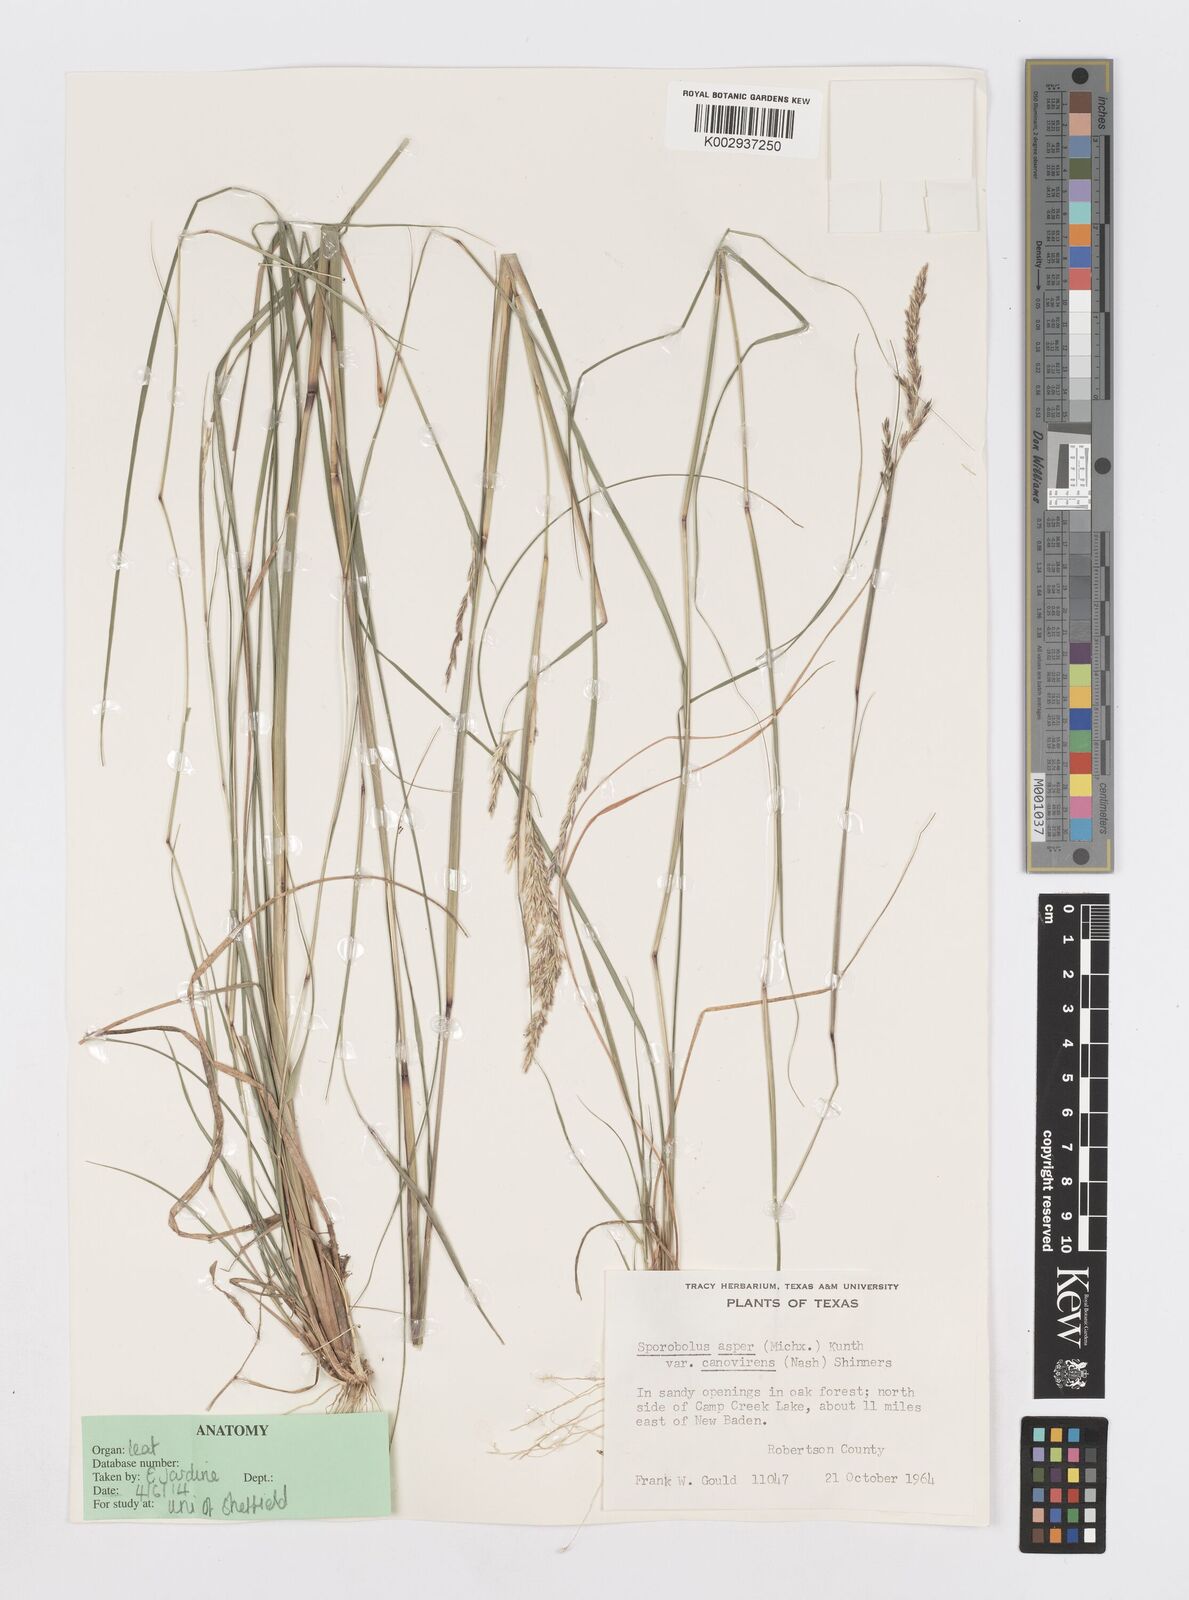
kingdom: Plantae
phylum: Tracheophyta
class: Liliopsida
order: Poales
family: Poaceae
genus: Sporobolus
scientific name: Sporobolus clandestinus
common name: Hidden dropseed
